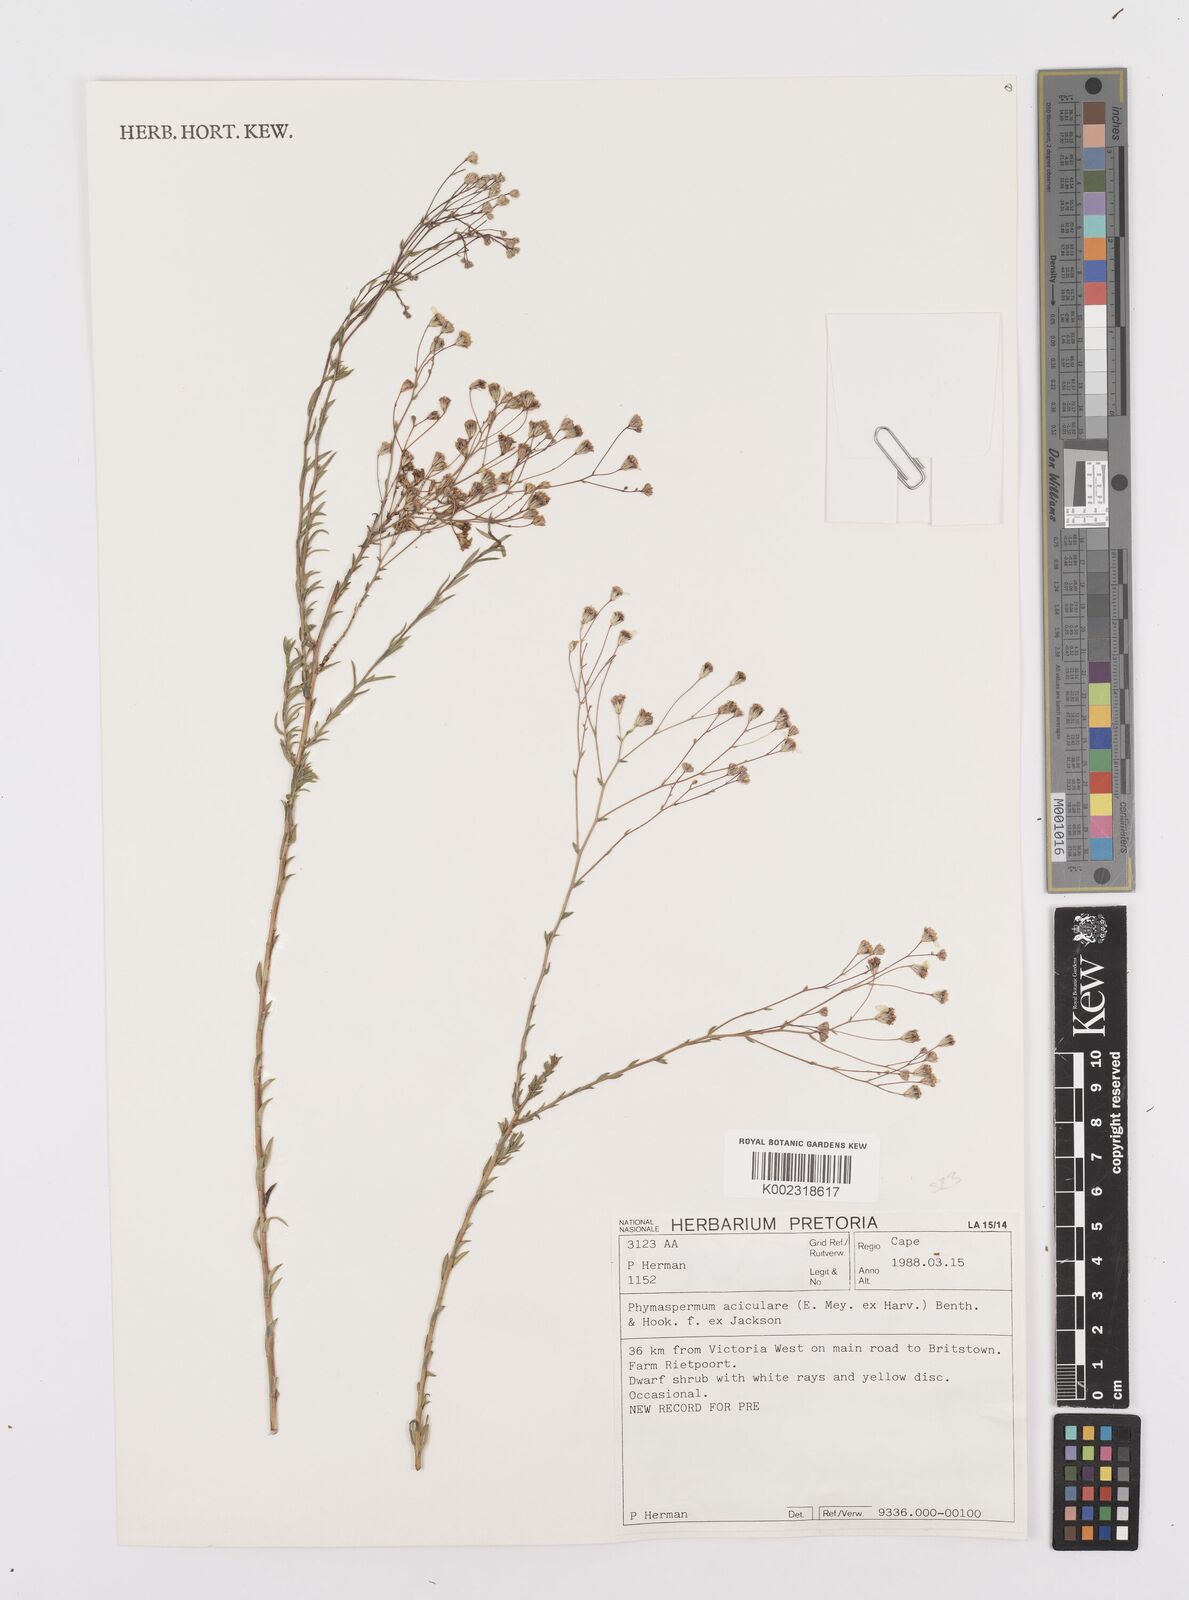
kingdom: Plantae
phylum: Tracheophyta
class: Magnoliopsida
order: Asterales
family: Asteraceae
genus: Phymaspermum
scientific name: Phymaspermum aciculare
